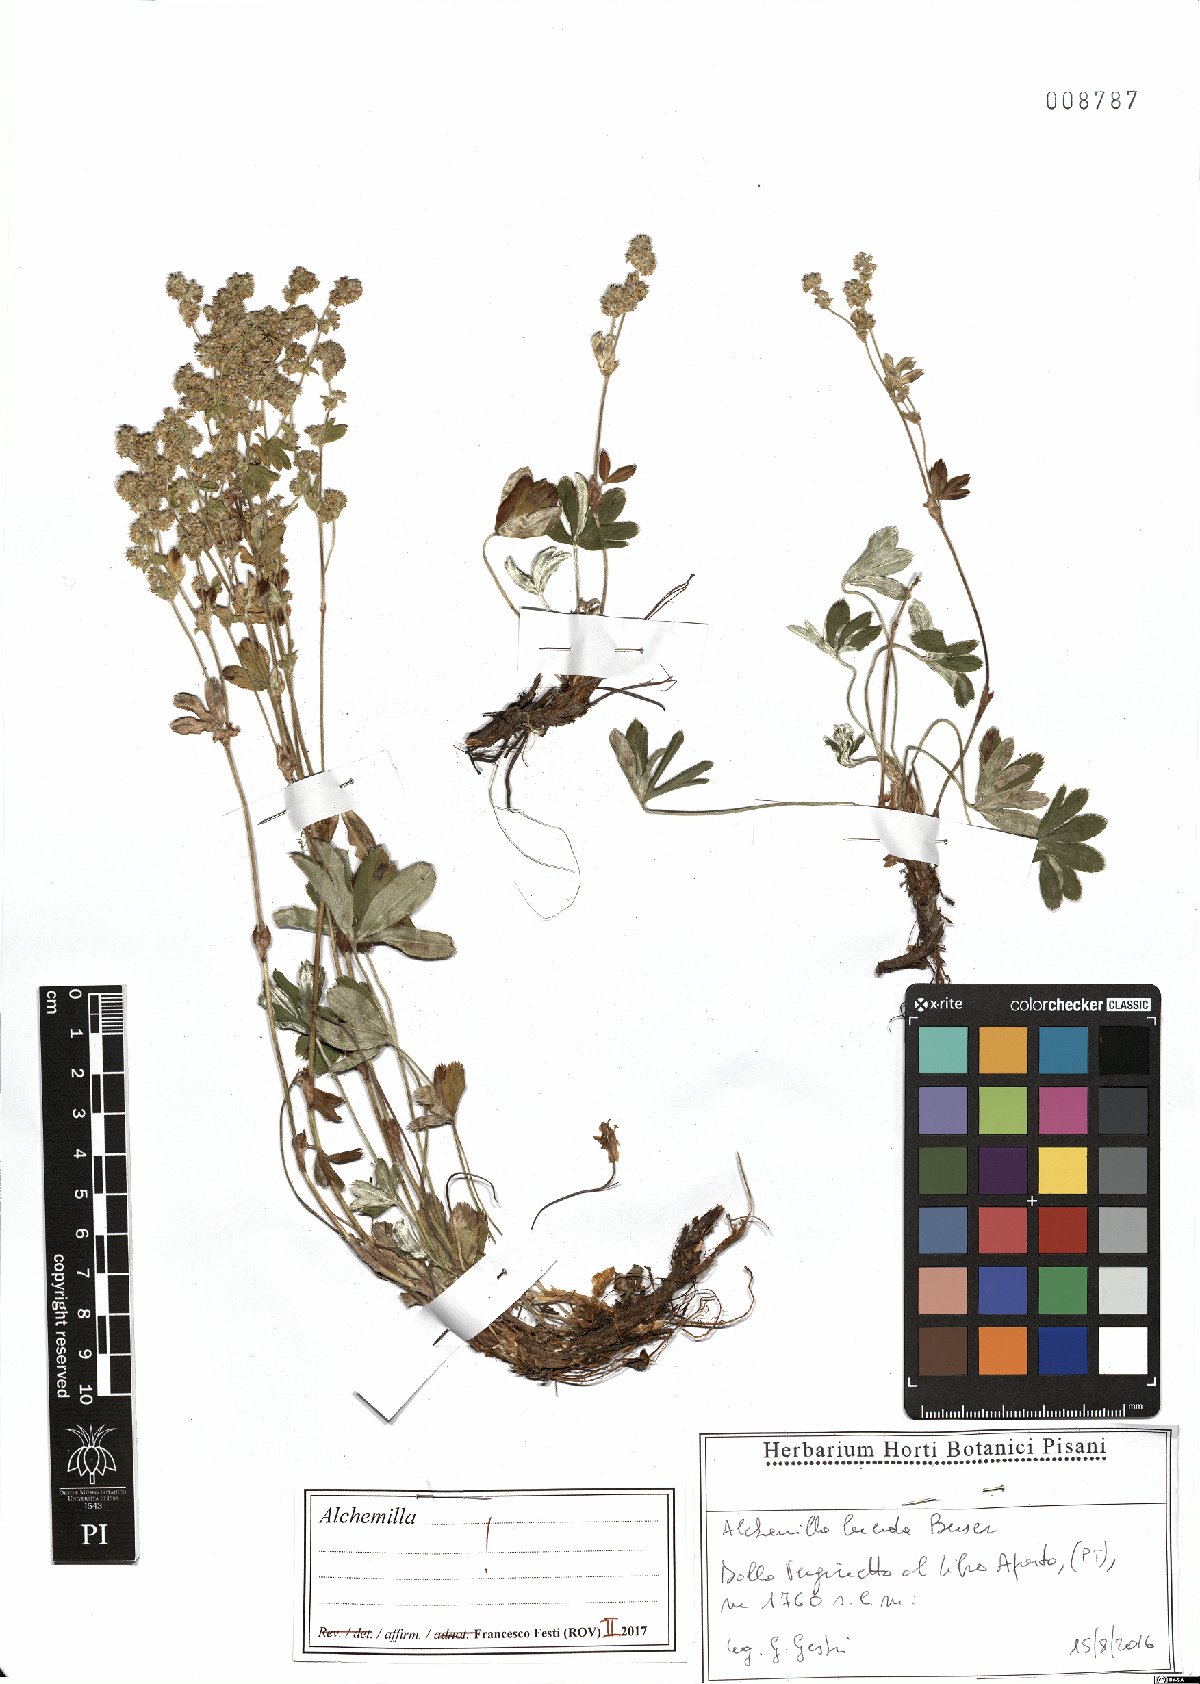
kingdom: Plantae
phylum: Tracheophyta
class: Magnoliopsida
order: Rosales
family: Rosaceae
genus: Alchemilla
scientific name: Alchemilla lucida
